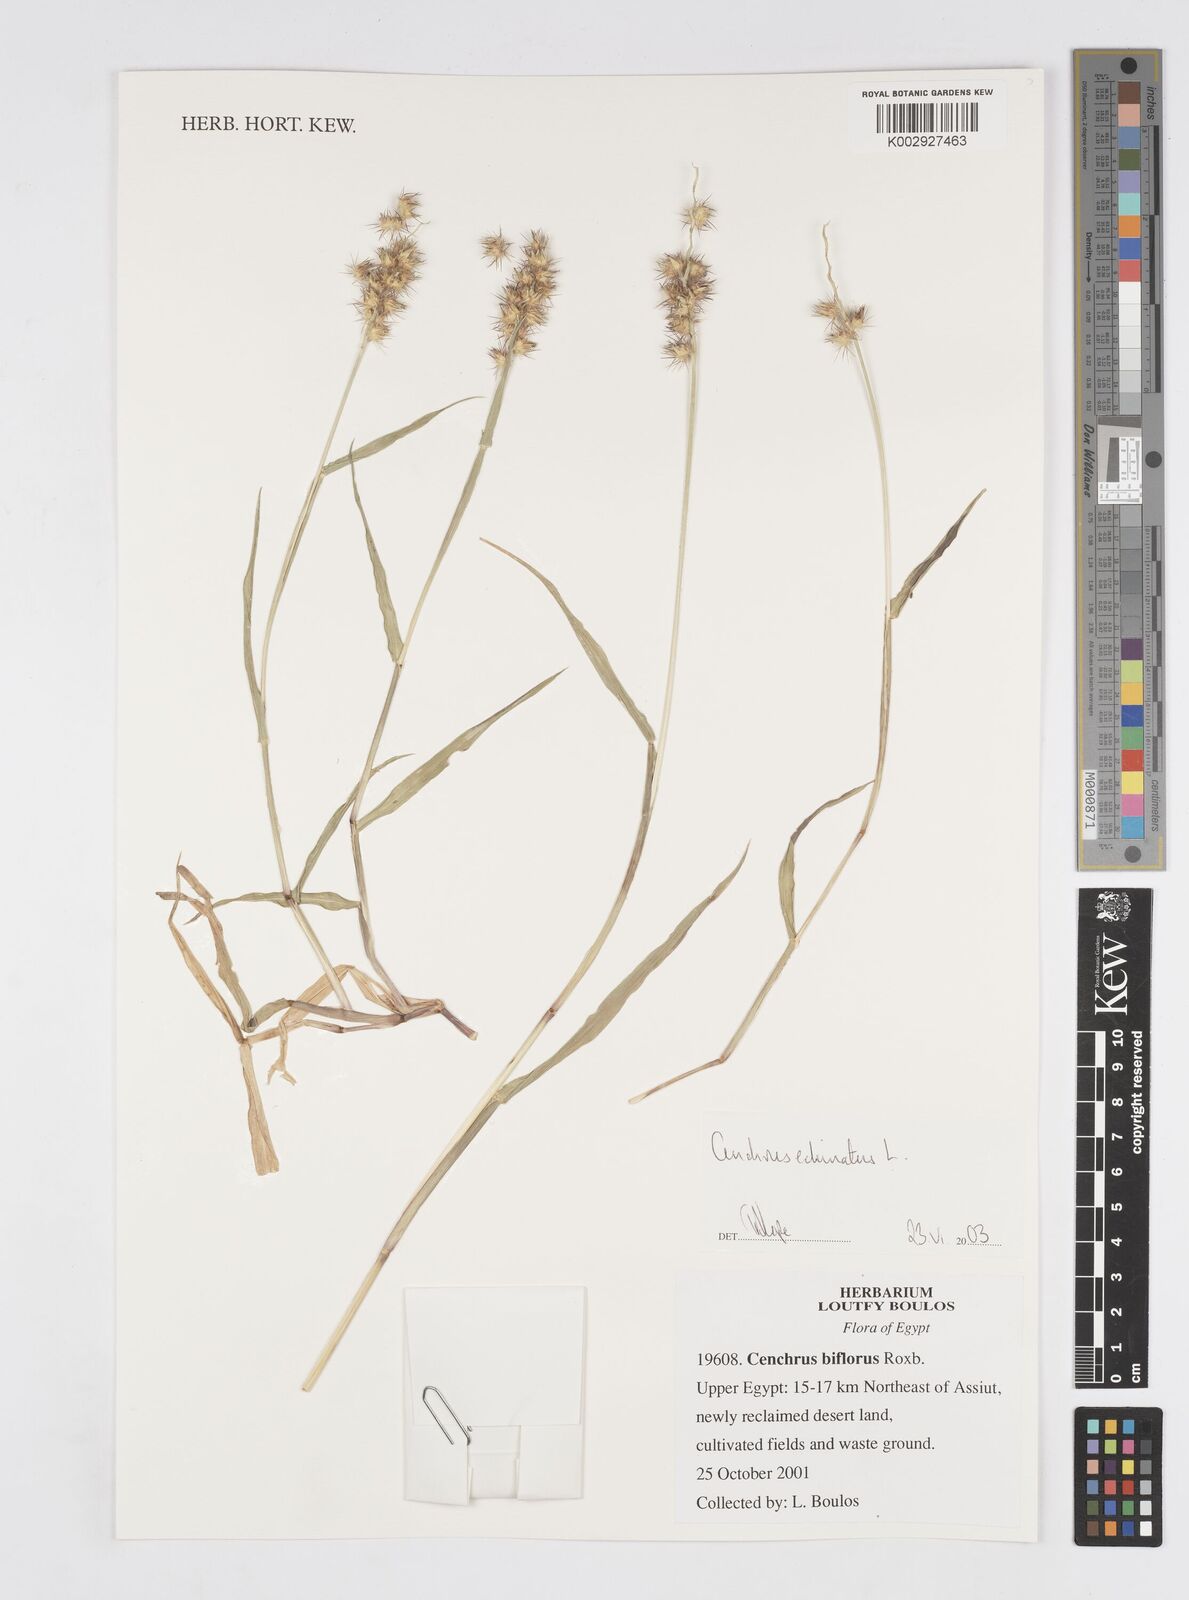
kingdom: Plantae
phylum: Tracheophyta
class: Liliopsida
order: Poales
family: Poaceae
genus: Cenchrus
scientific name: Cenchrus echinatus
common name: Southern sandbur
